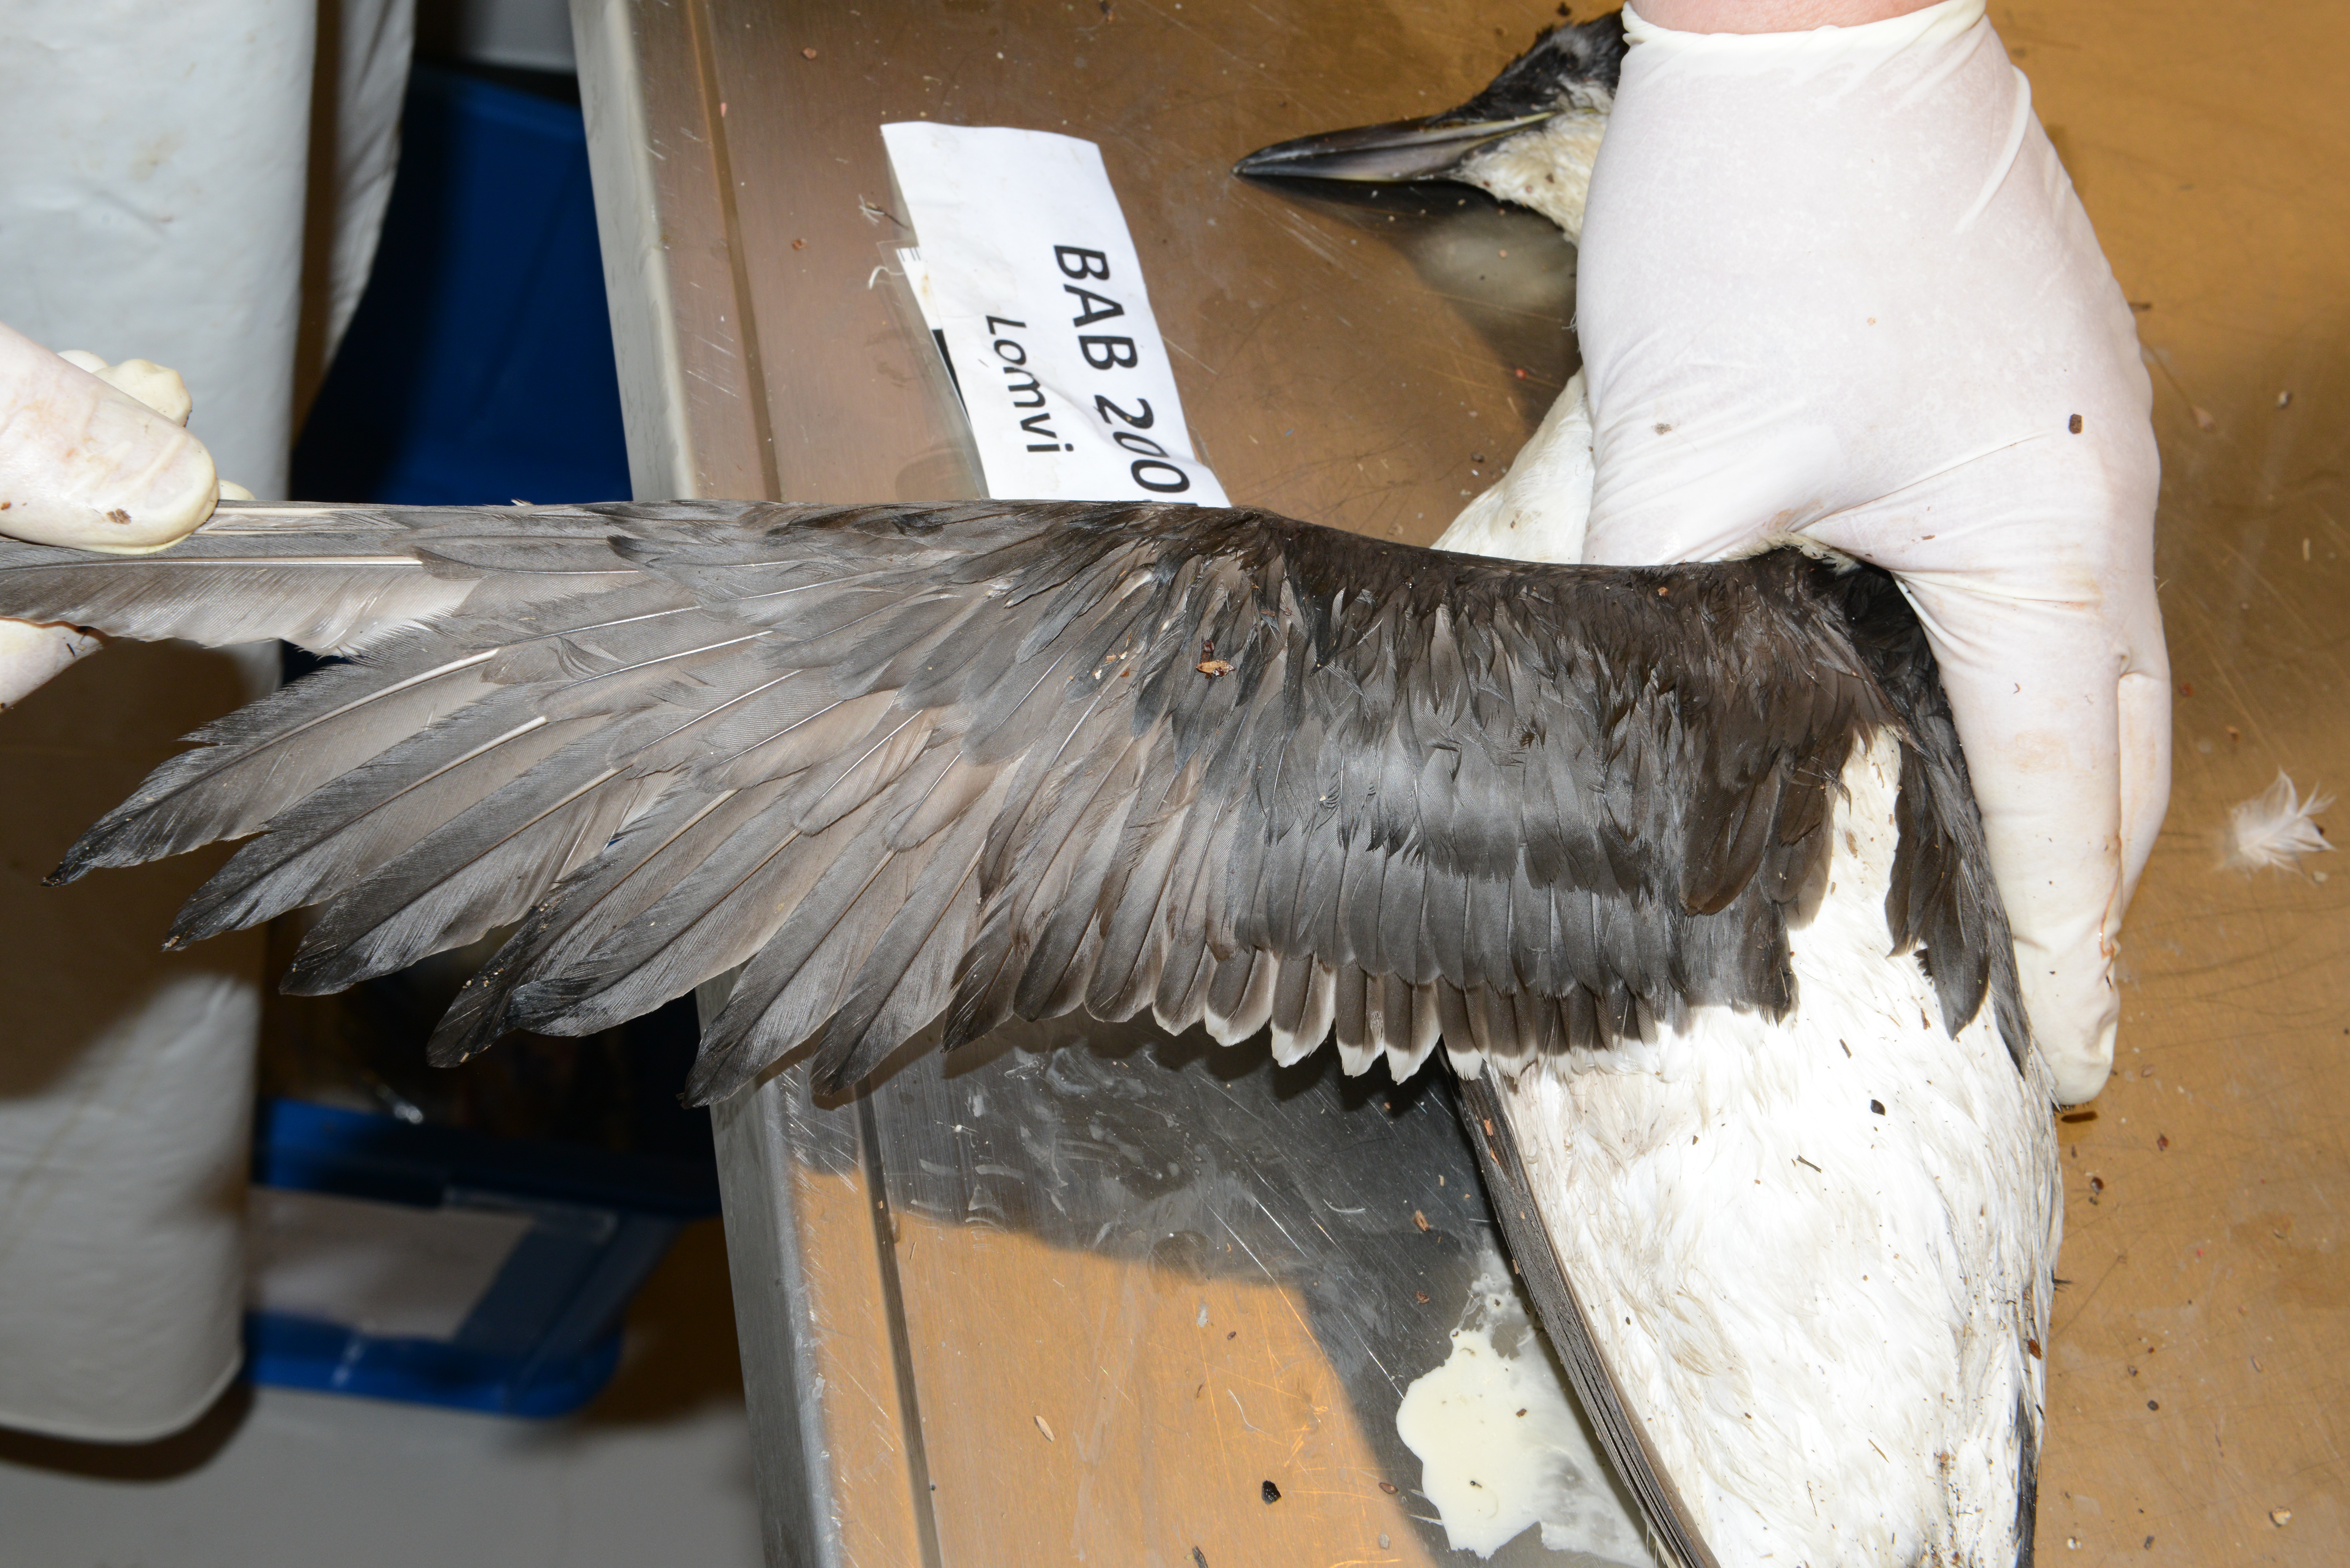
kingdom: Animalia
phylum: Chordata
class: Aves
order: Charadriiformes
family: Alcidae
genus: Uria
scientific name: Uria aalge
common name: Common murre
